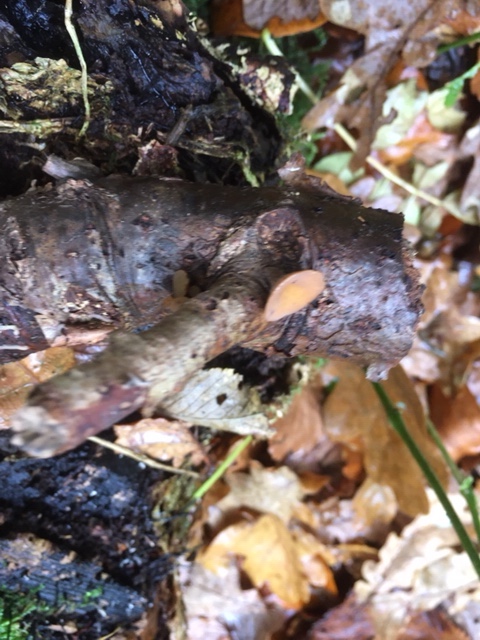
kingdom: Fungi
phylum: Ascomycota
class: Leotiomycetes
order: Helotiales
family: Rutstroemiaceae
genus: Rutstroemia
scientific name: Rutstroemia firma
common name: gren-brunskive
